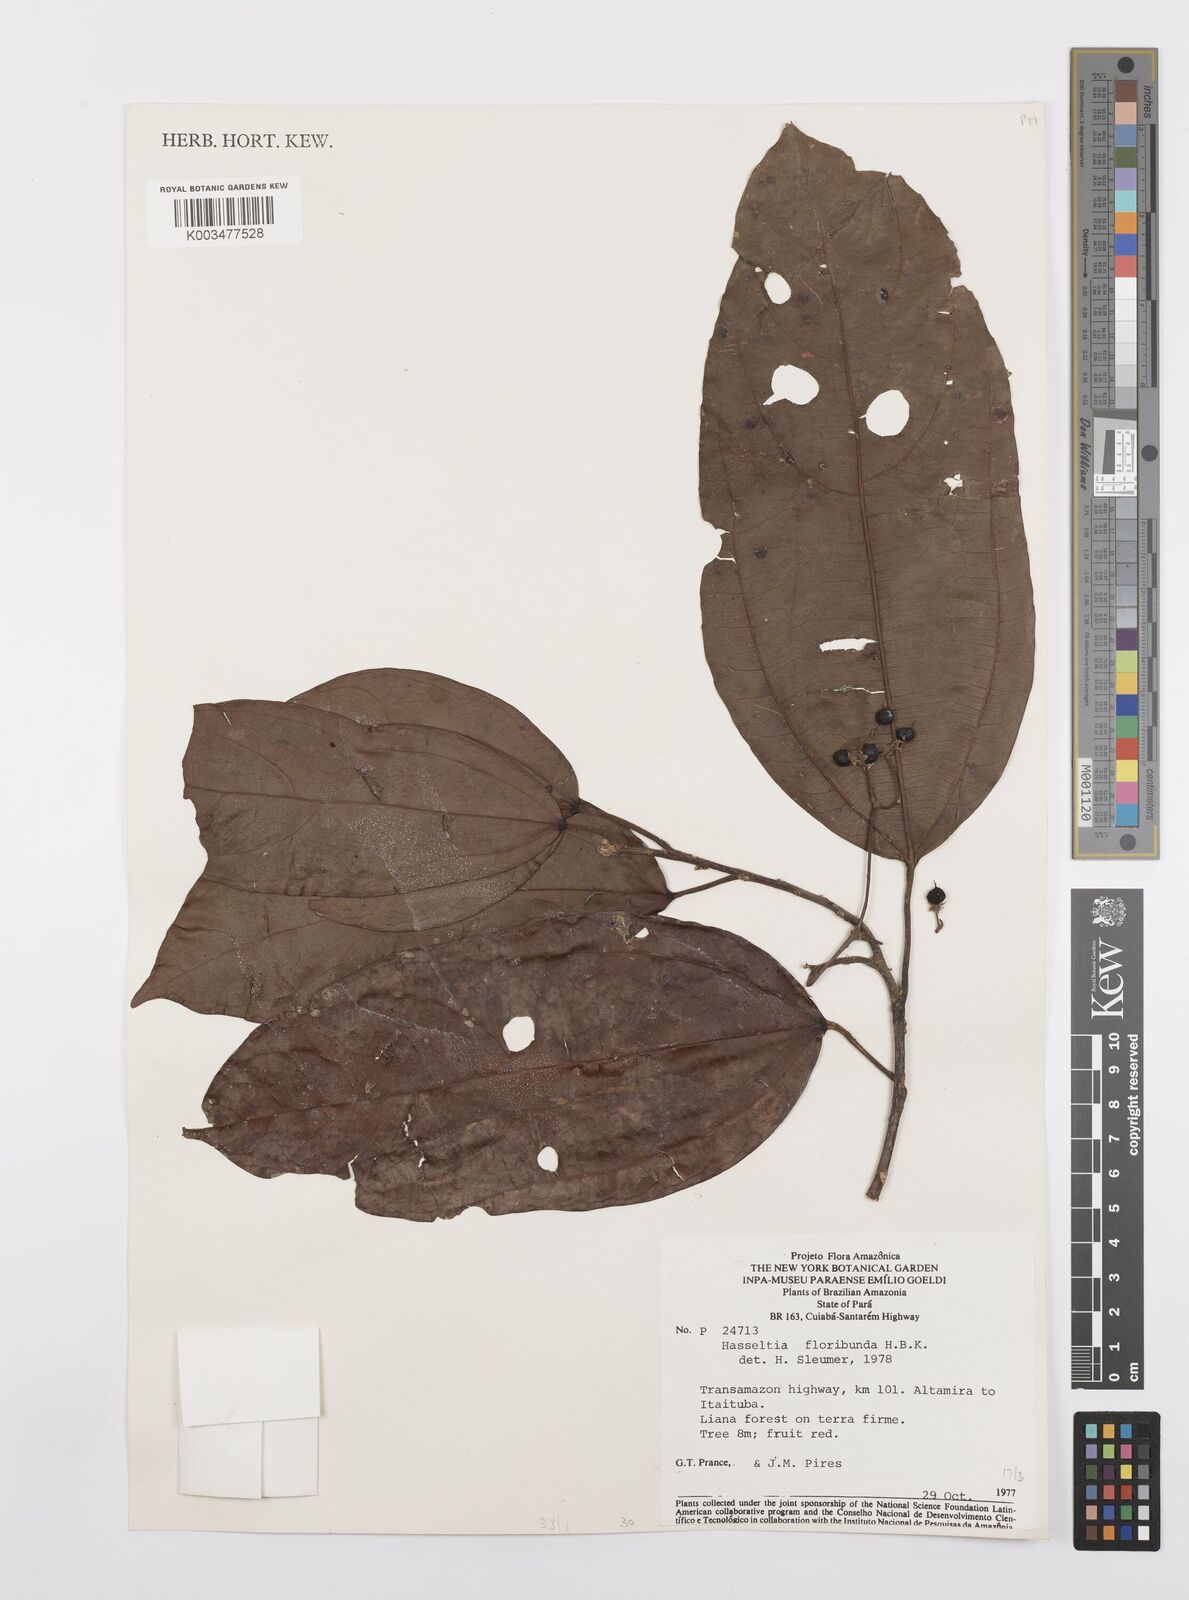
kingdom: Plantae
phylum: Tracheophyta
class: Magnoliopsida
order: Malpighiales
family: Salicaceae
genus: Hasseltia
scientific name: Hasseltia floribunda
